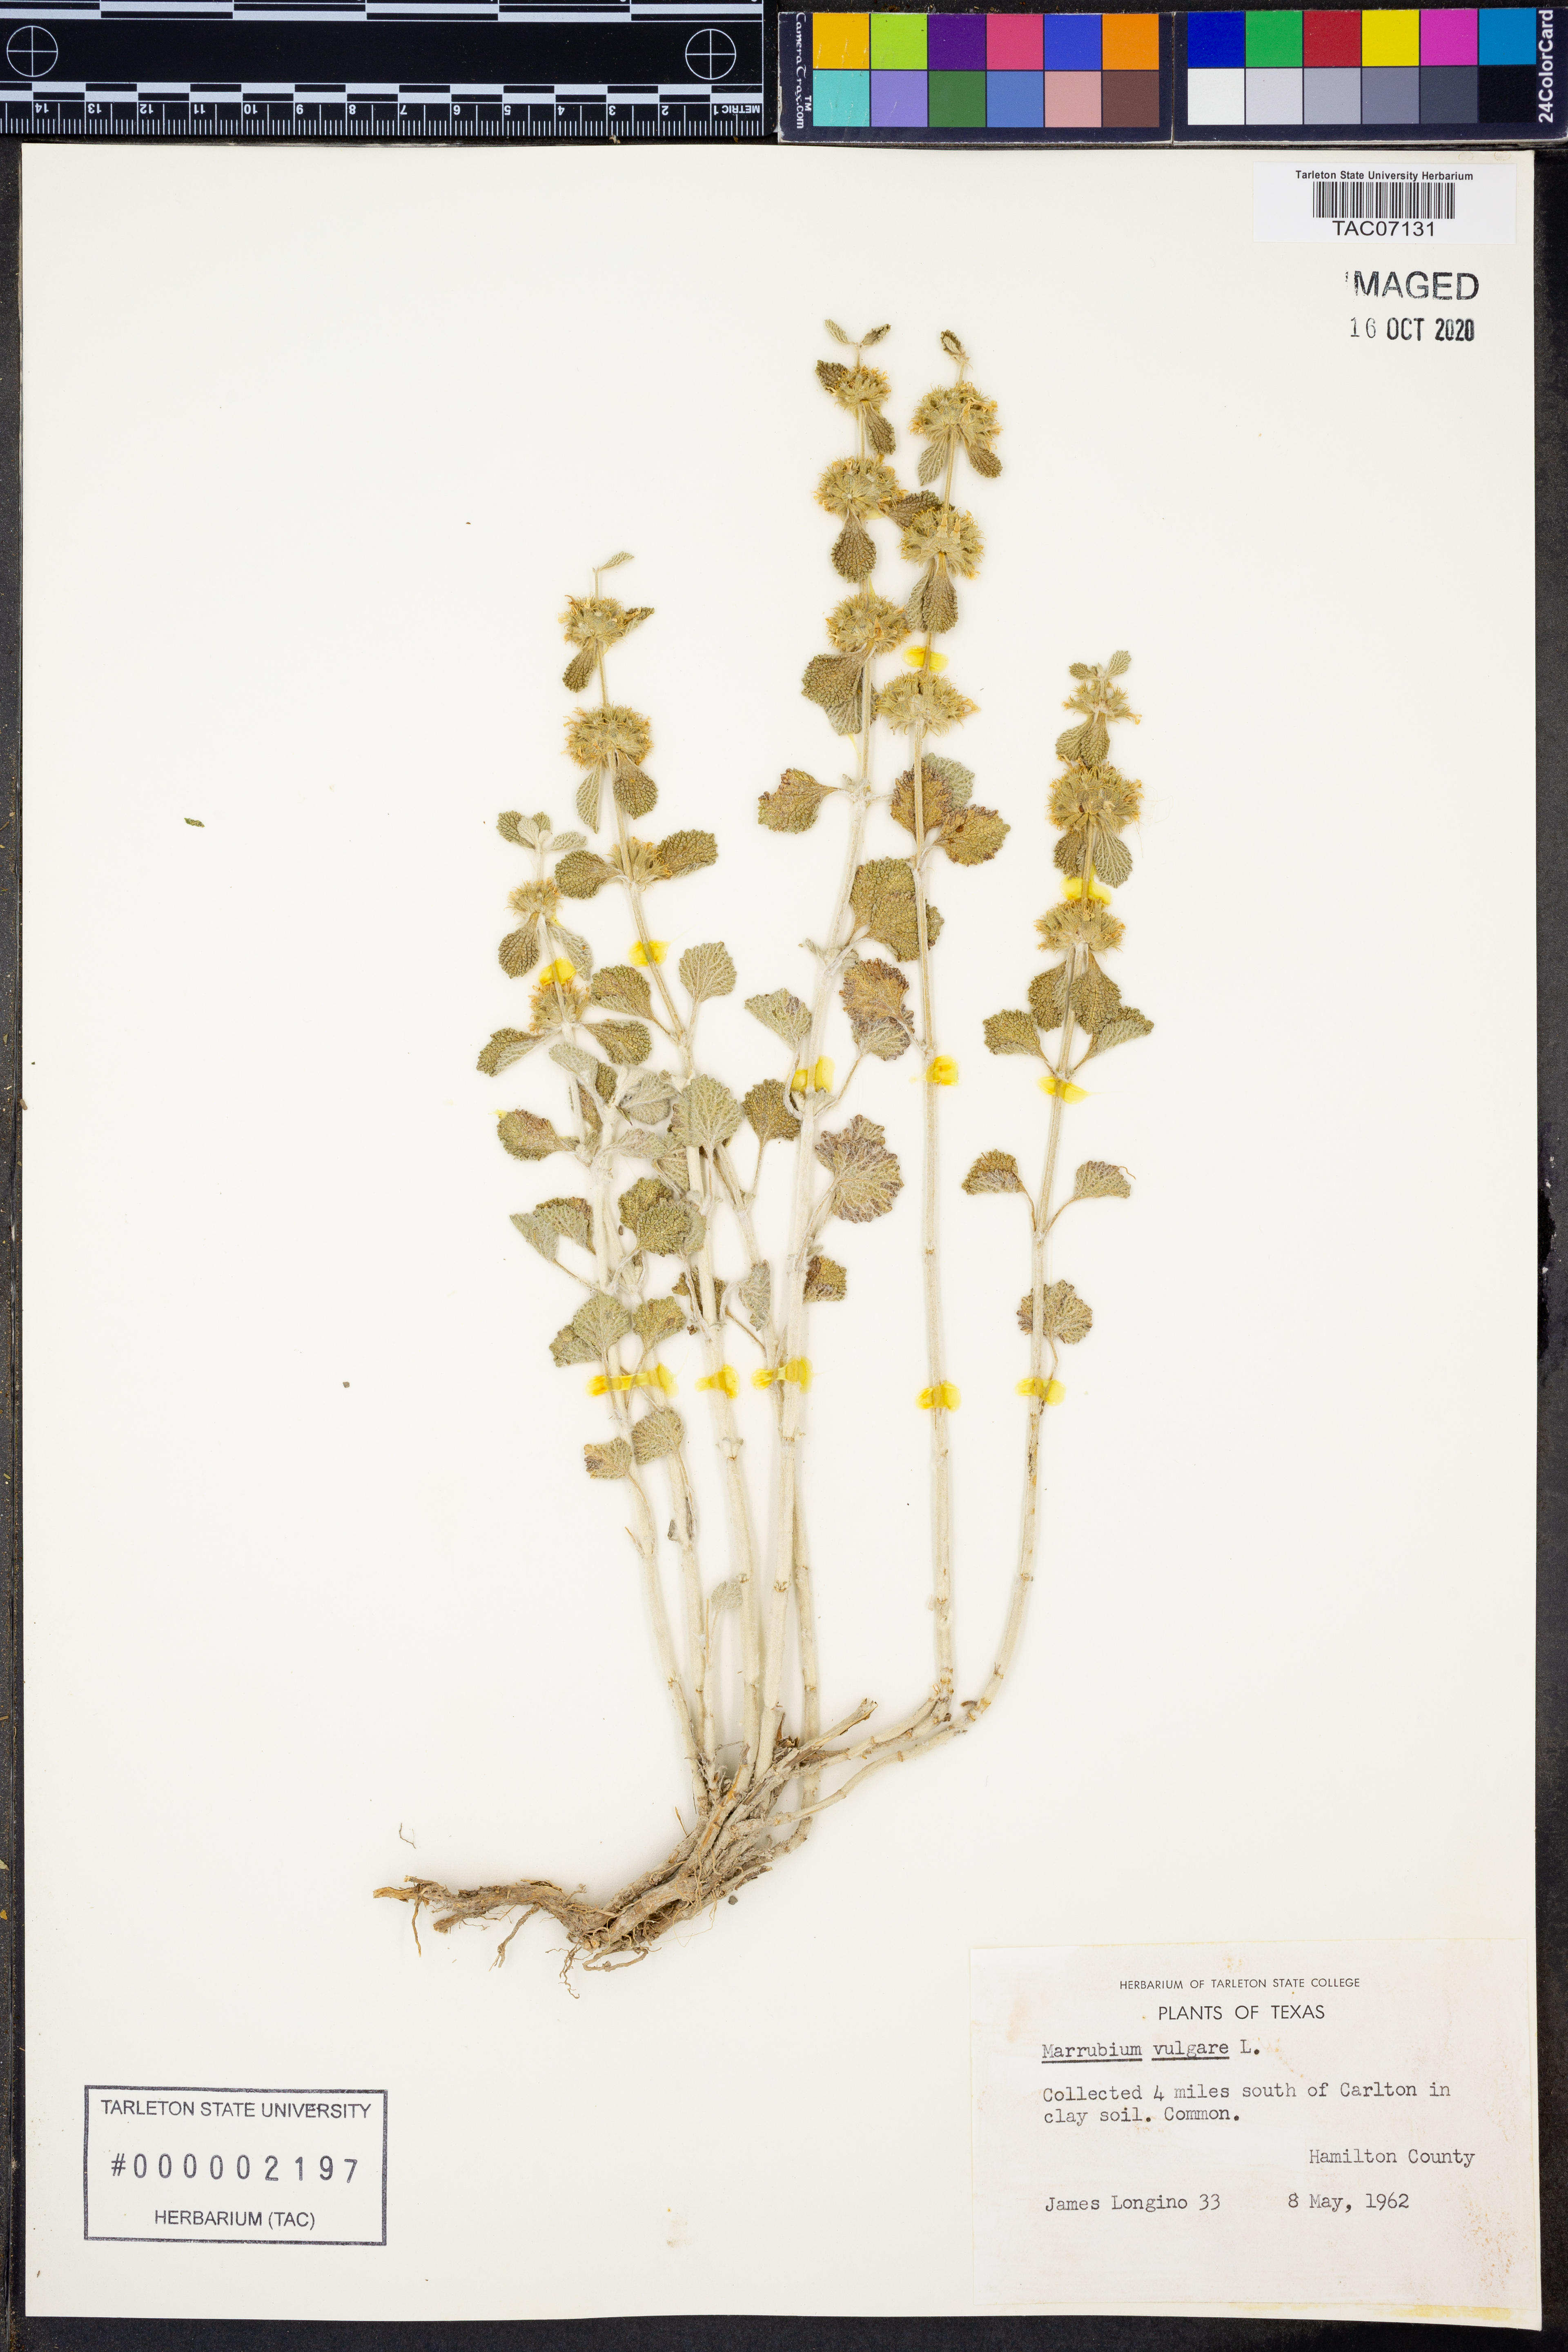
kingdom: Plantae
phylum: Tracheophyta
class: Magnoliopsida
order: Lamiales
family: Lamiaceae
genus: Marrubium
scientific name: Marrubium vulgare
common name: Horehound
